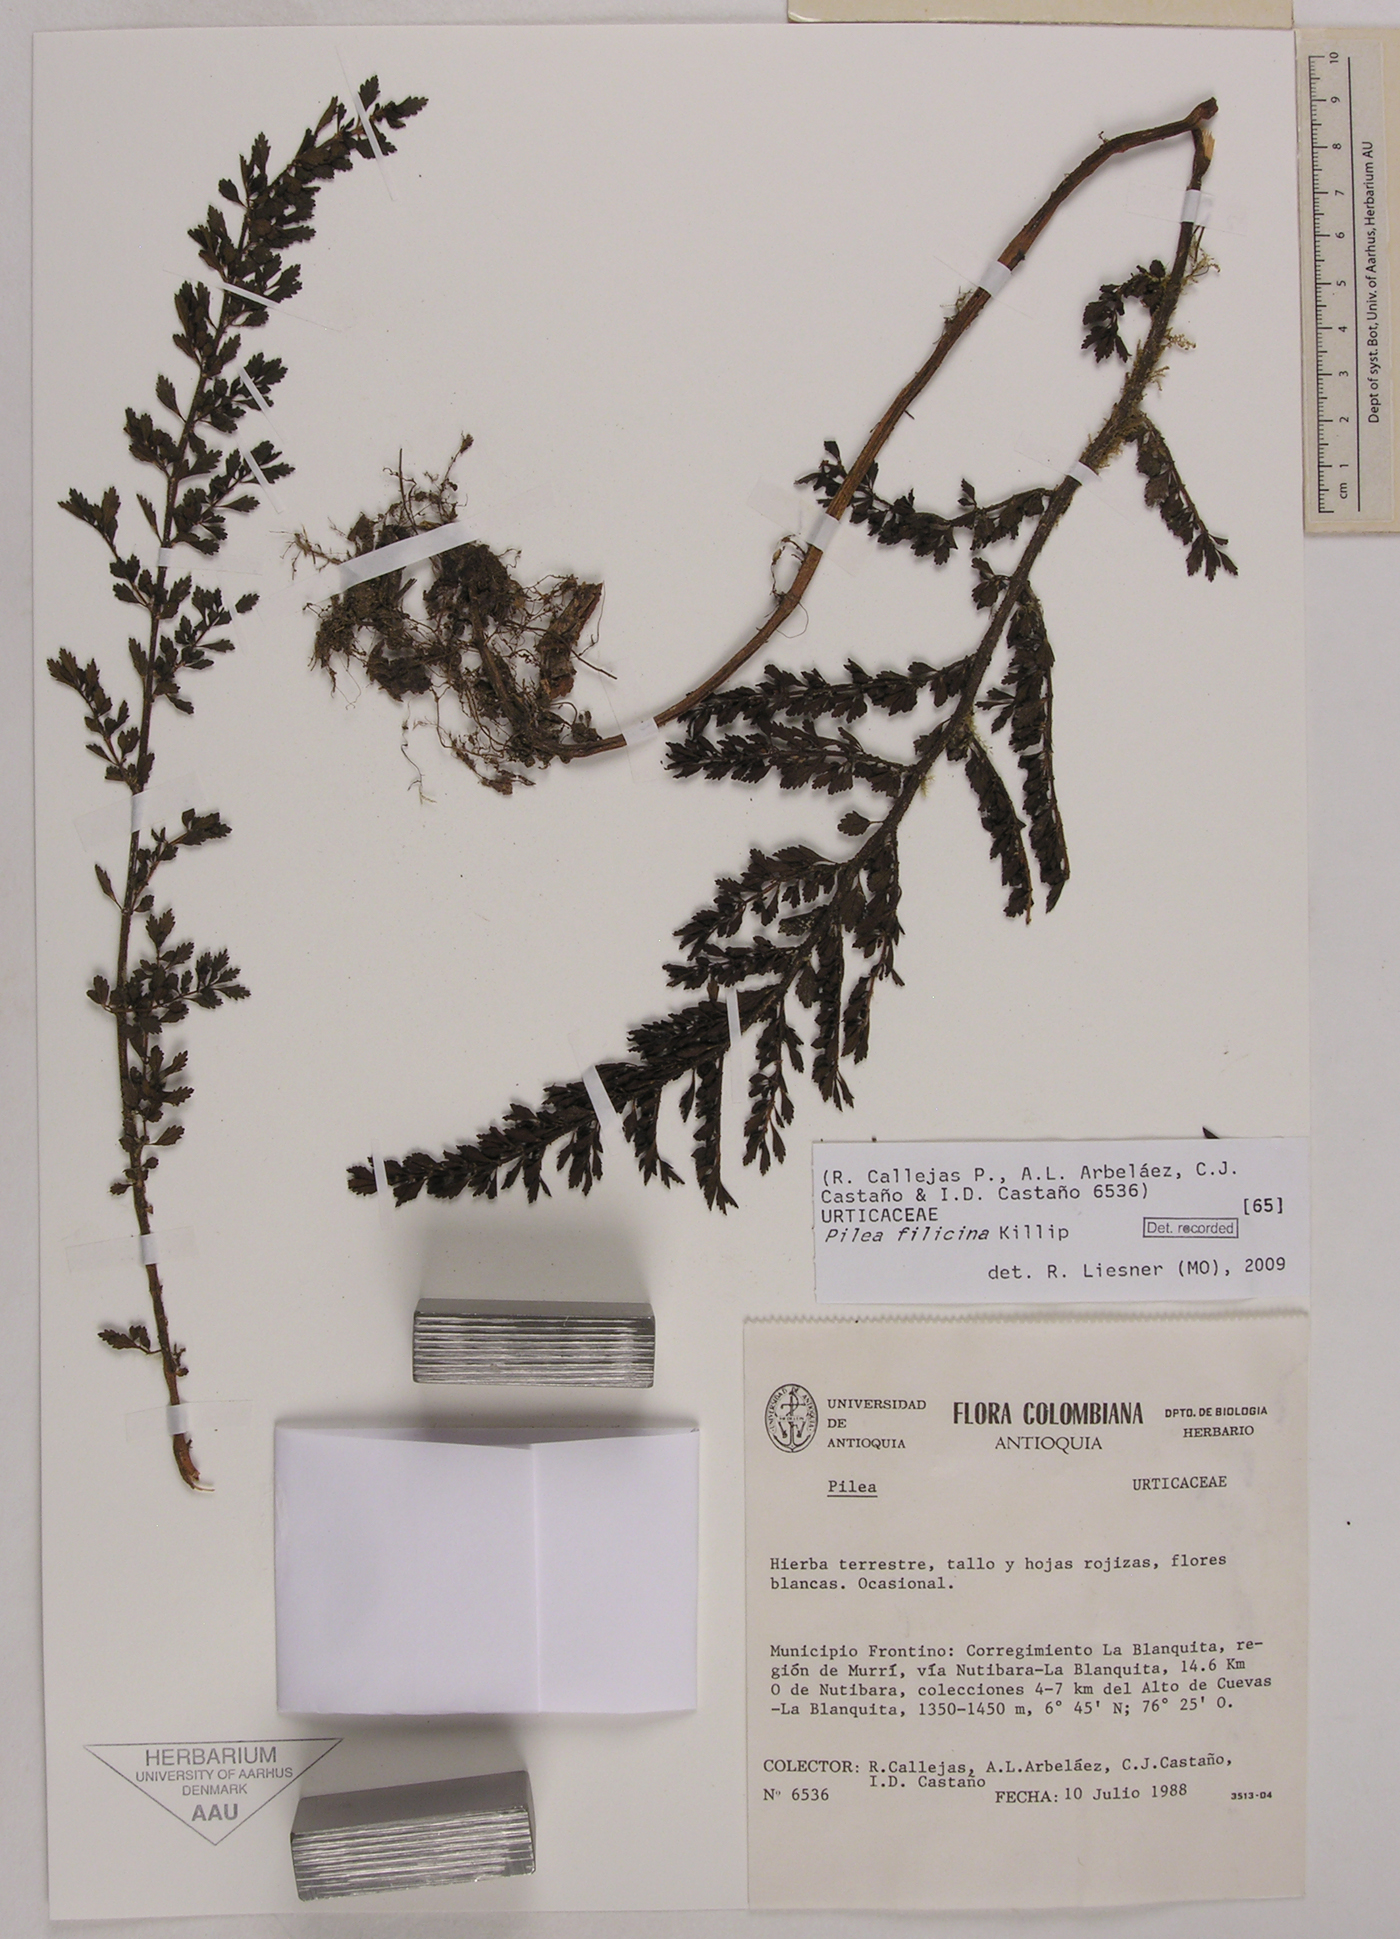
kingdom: Plantae
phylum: Tracheophyta
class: Magnoliopsida
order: Rosales
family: Urticaceae
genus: Pilea
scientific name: Pilea filicina
